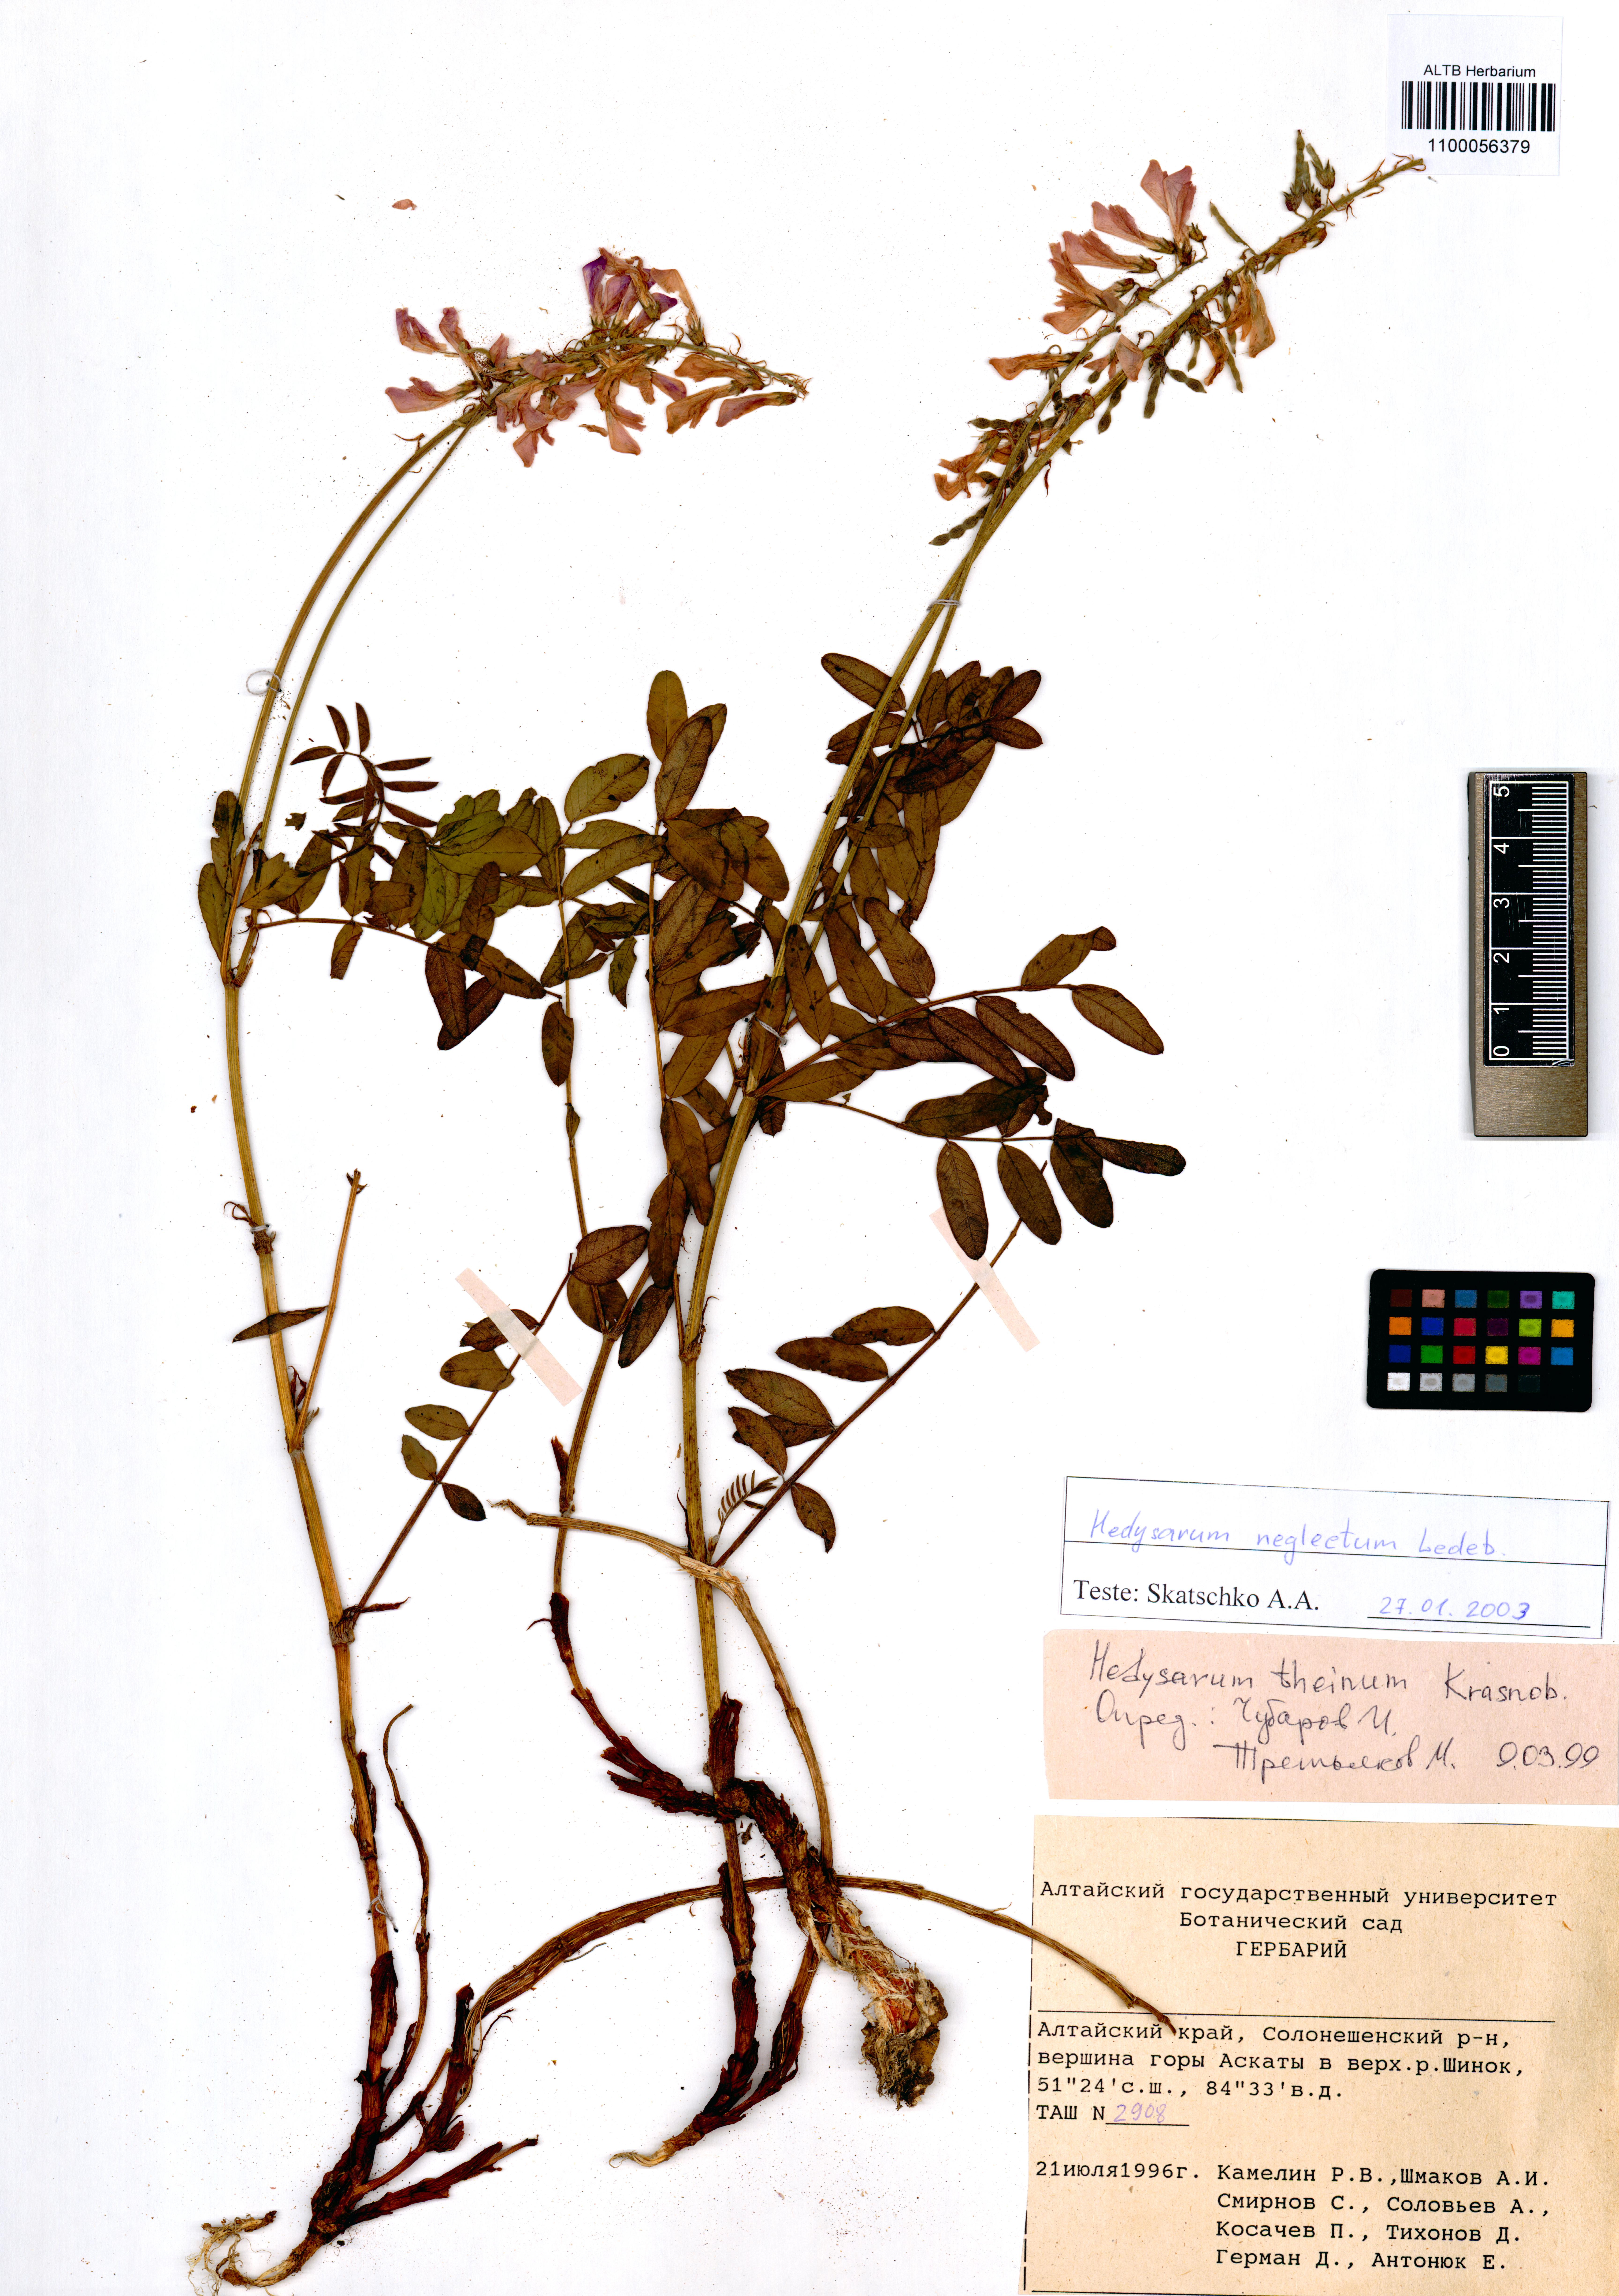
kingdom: Plantae
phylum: Tracheophyta
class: Magnoliopsida
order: Fabales
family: Fabaceae
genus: Hedysarum
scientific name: Hedysarum theinum
